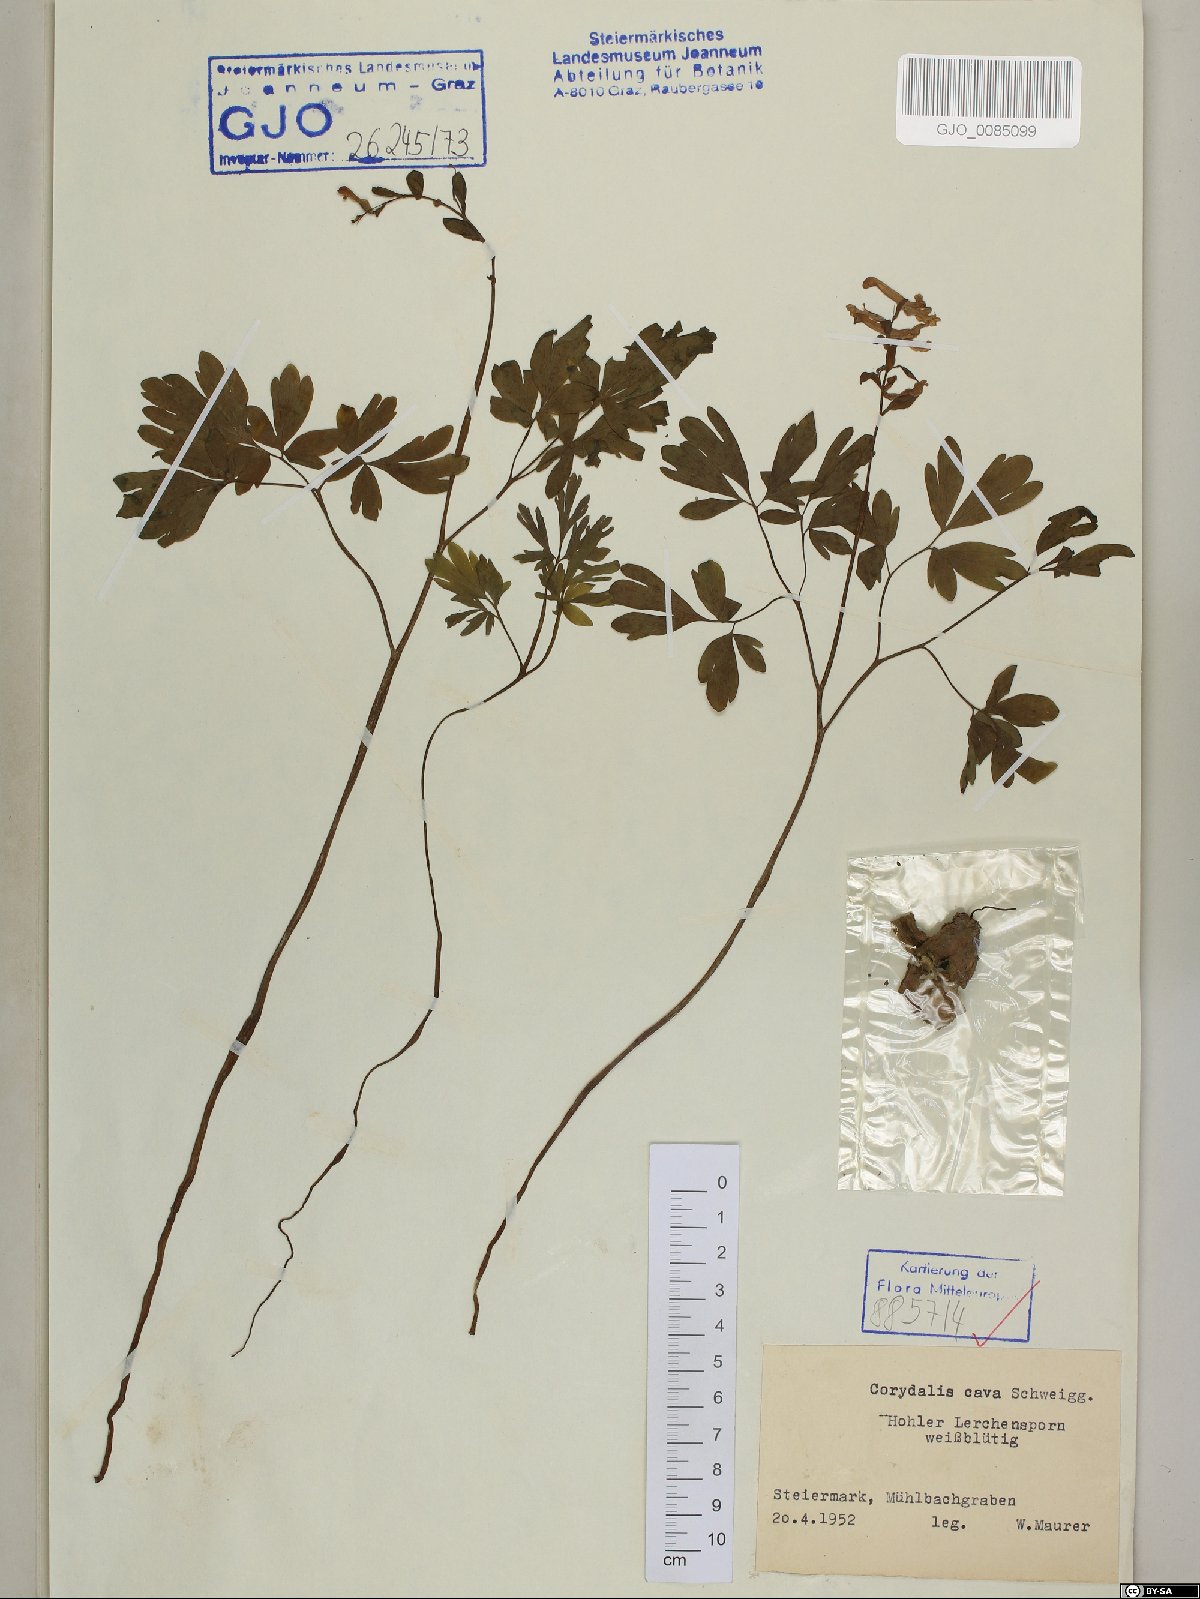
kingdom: Plantae
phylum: Tracheophyta
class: Magnoliopsida
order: Ranunculales
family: Papaveraceae
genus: Corydalis
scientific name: Corydalis cava
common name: Hollowroot
